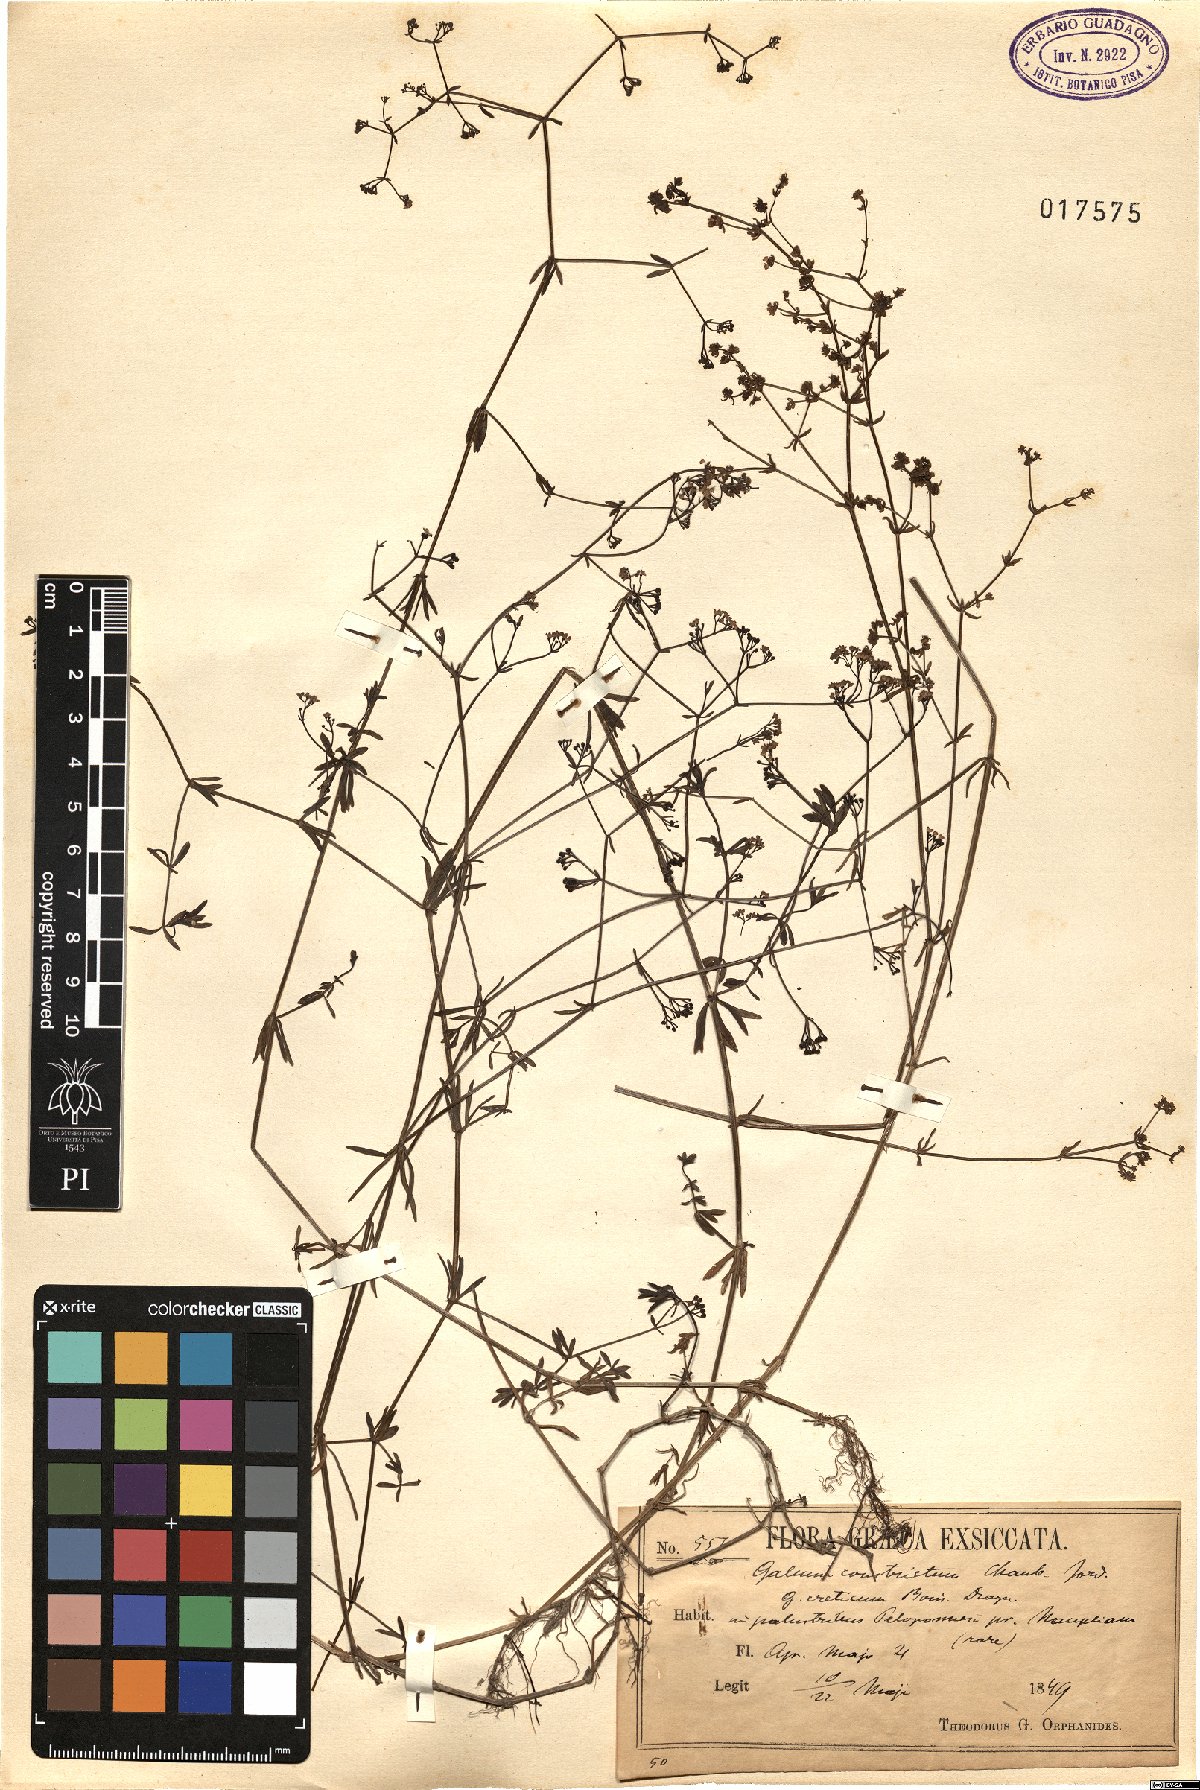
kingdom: Plantae
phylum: Tracheophyta
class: Magnoliopsida
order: Gentianales
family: Rubiaceae
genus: Galium
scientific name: Galium debile
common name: Slender marsh-bedstraw
